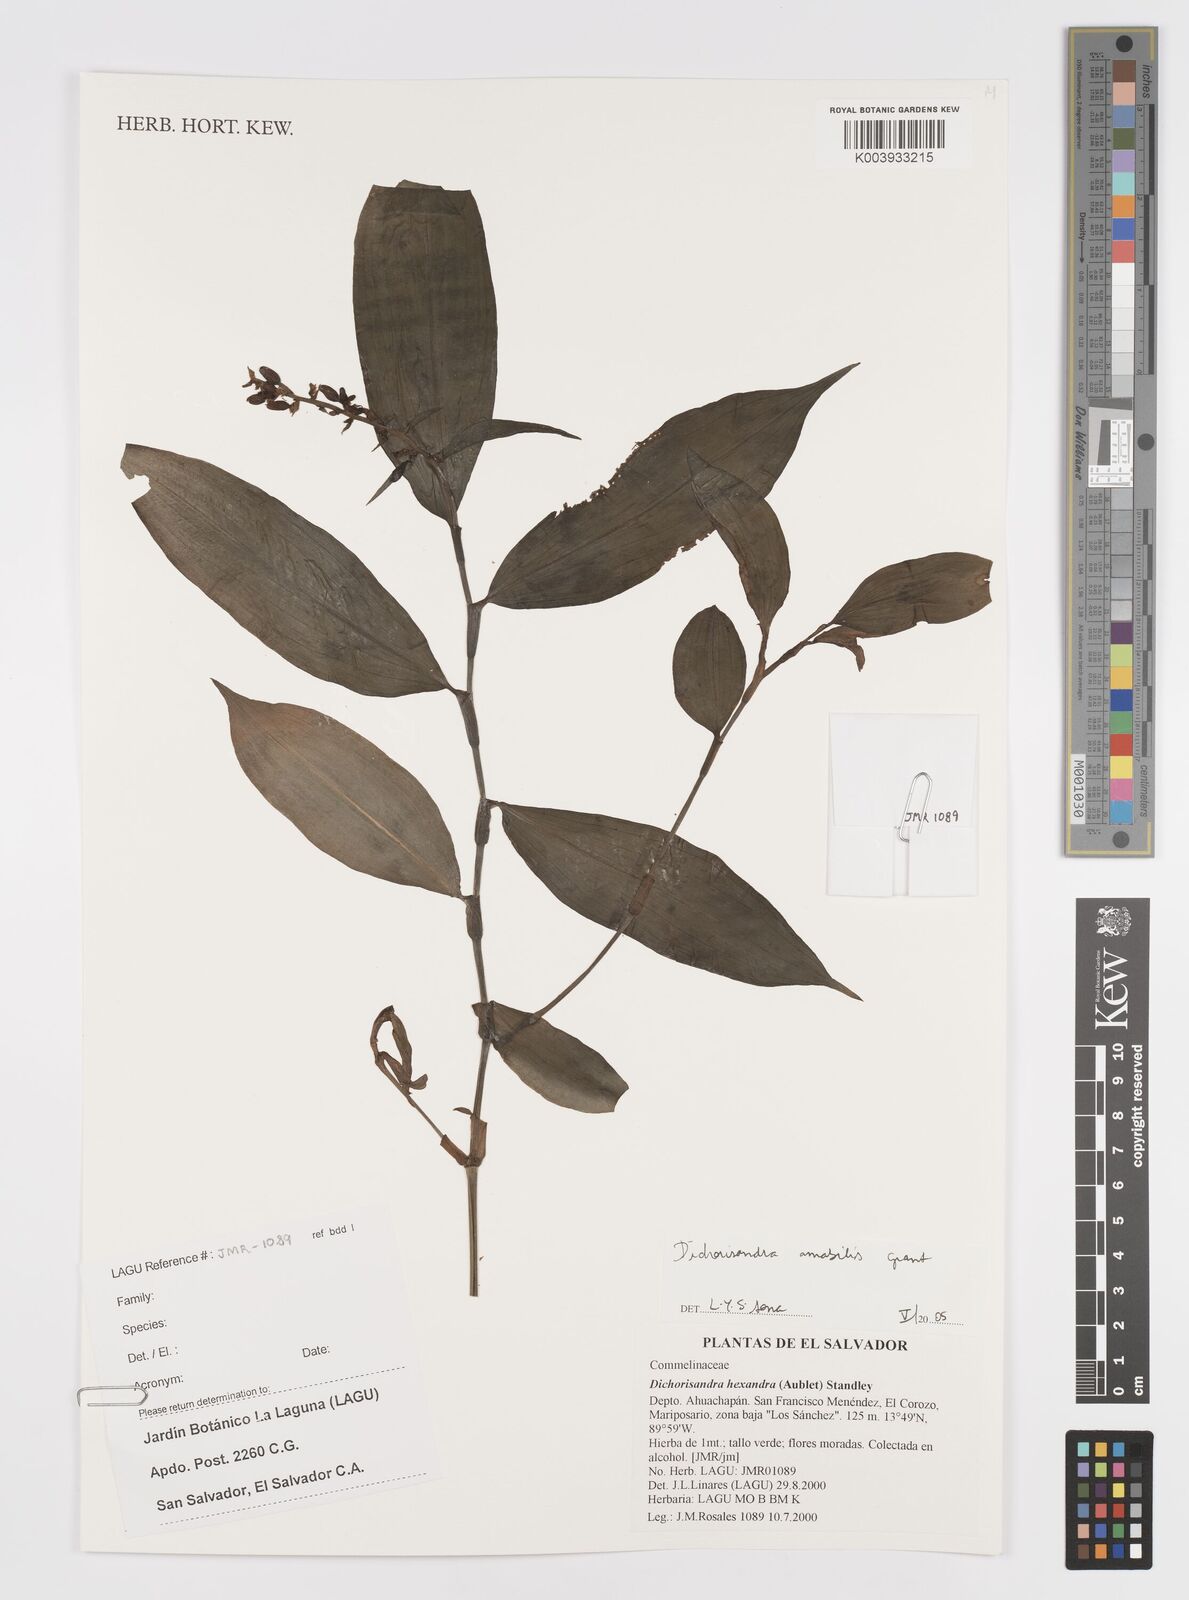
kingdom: Plantae
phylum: Tracheophyta
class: Liliopsida
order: Commelinales
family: Commelinaceae
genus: Dichorisandra
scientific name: Dichorisandra amabilis
